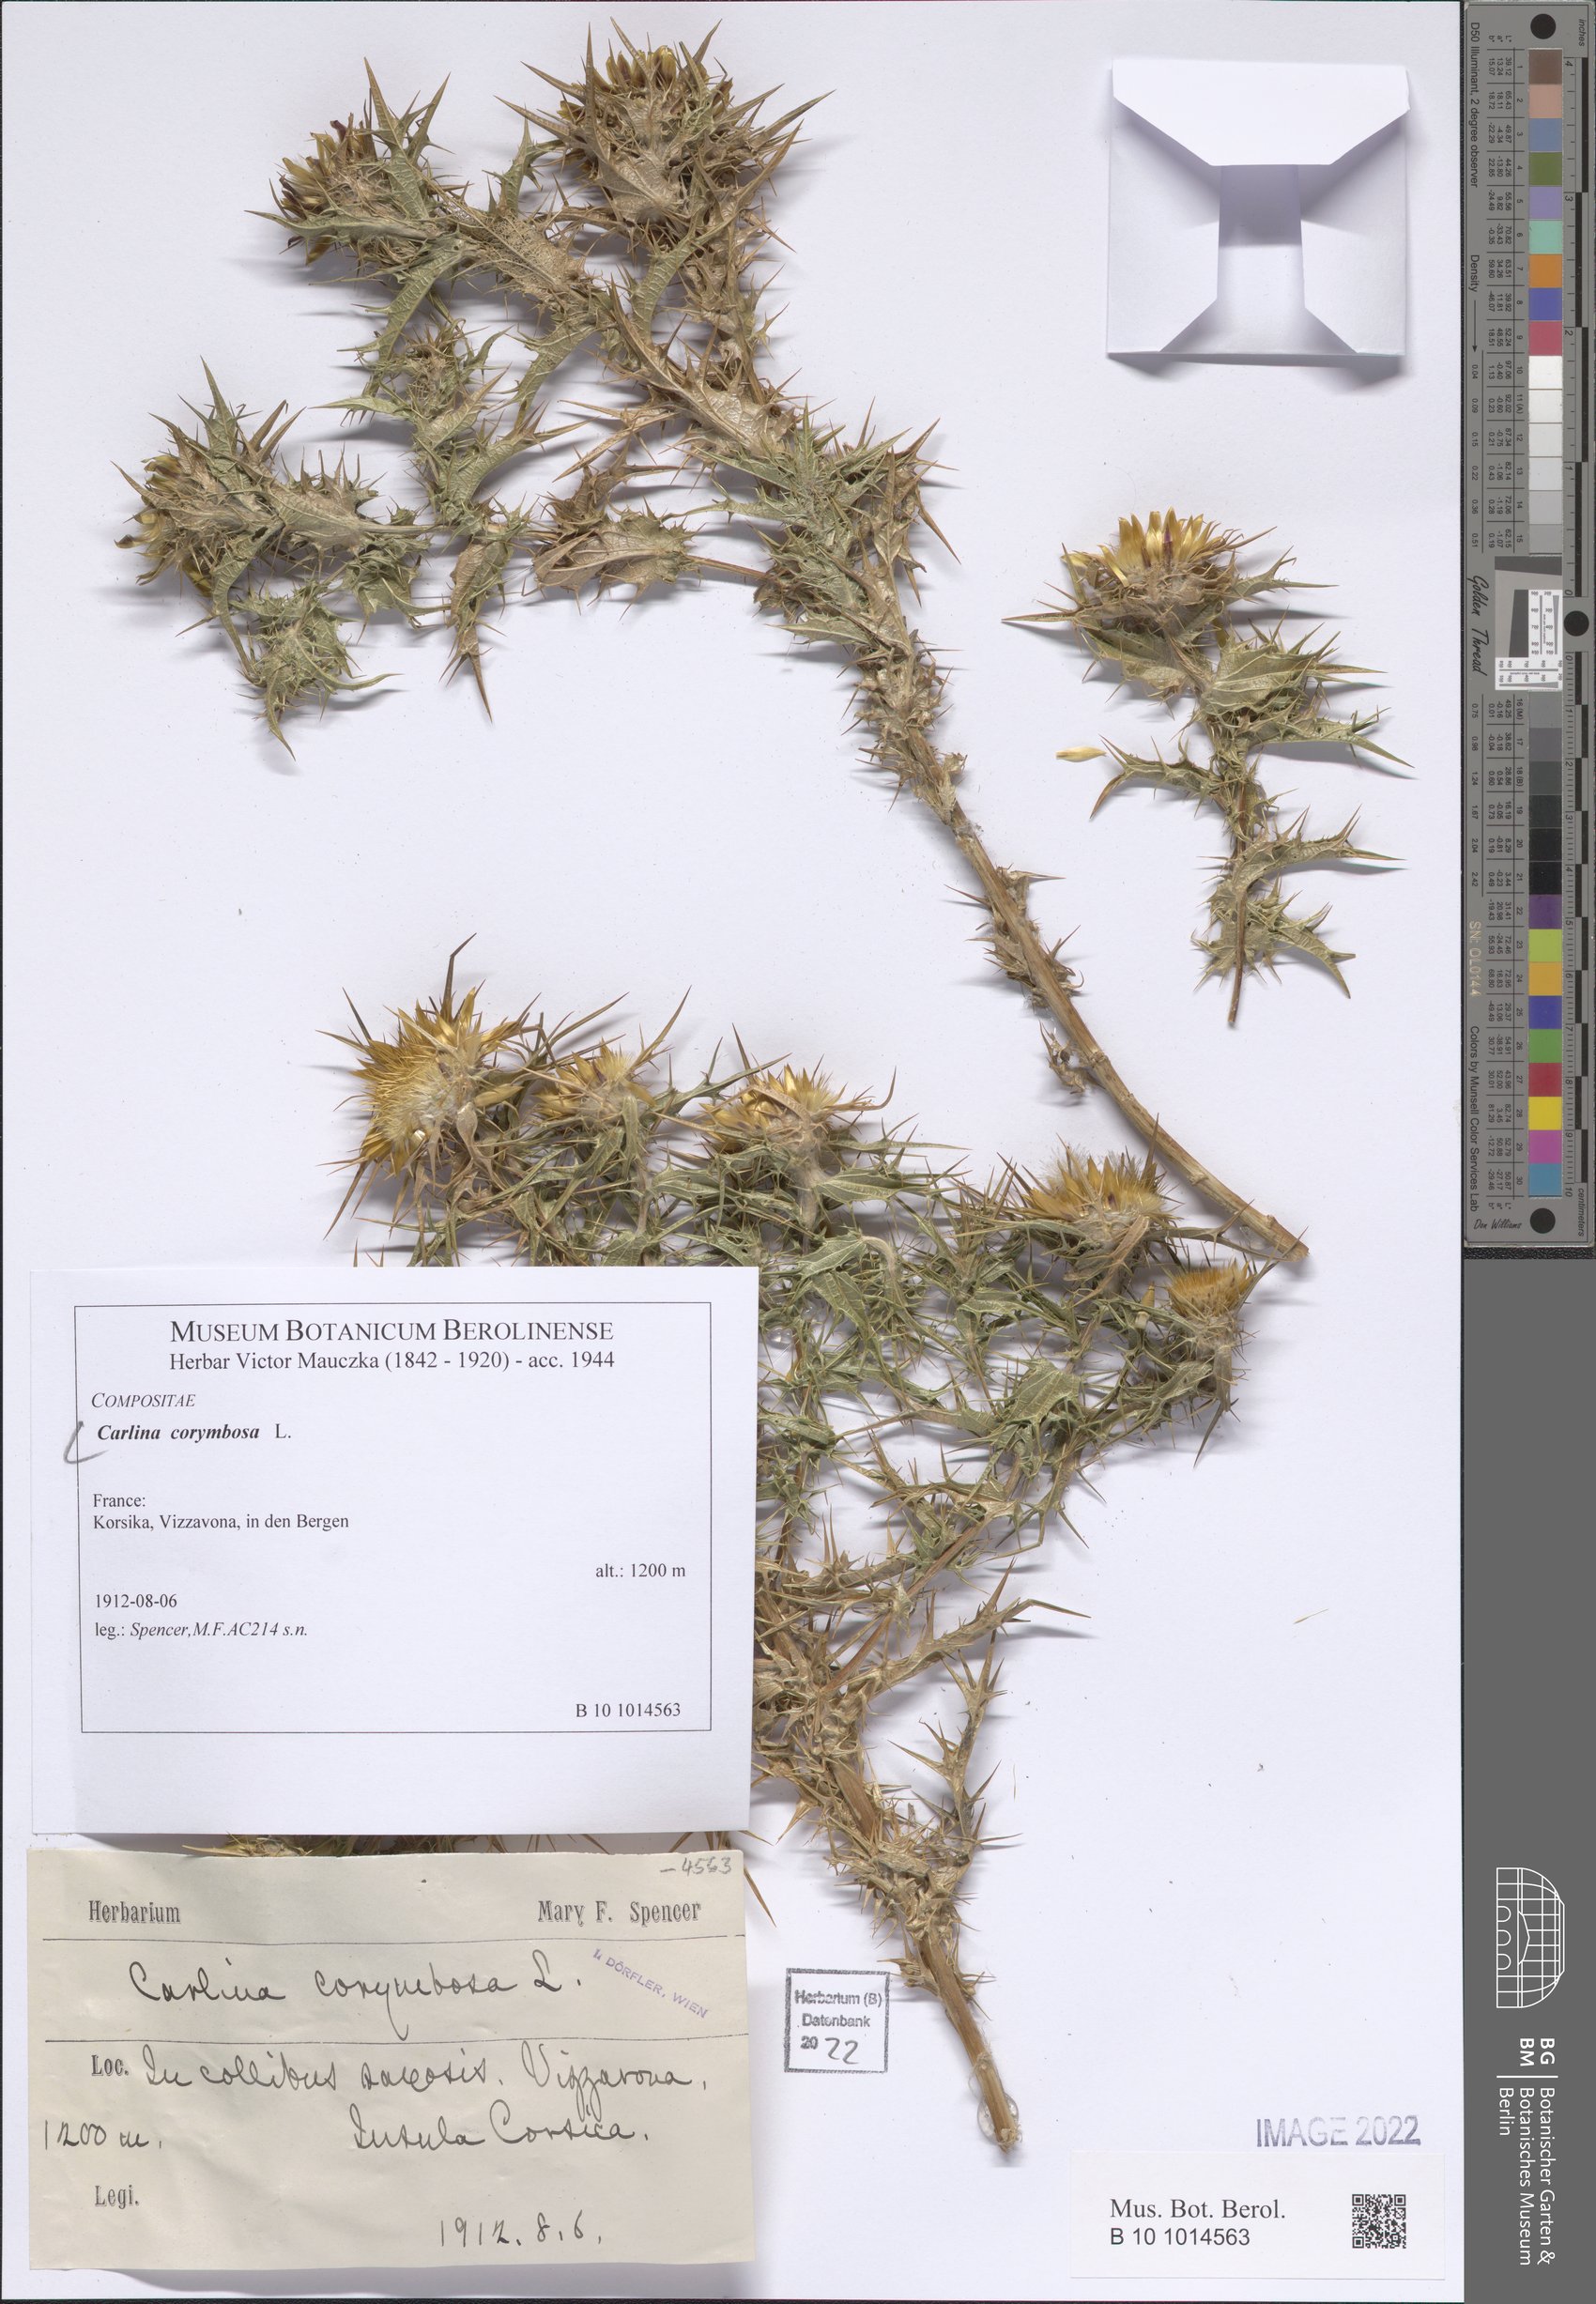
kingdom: Plantae
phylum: Tracheophyta
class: Magnoliopsida
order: Asterales
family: Asteraceae
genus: Carlina
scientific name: Carlina corymbosa
